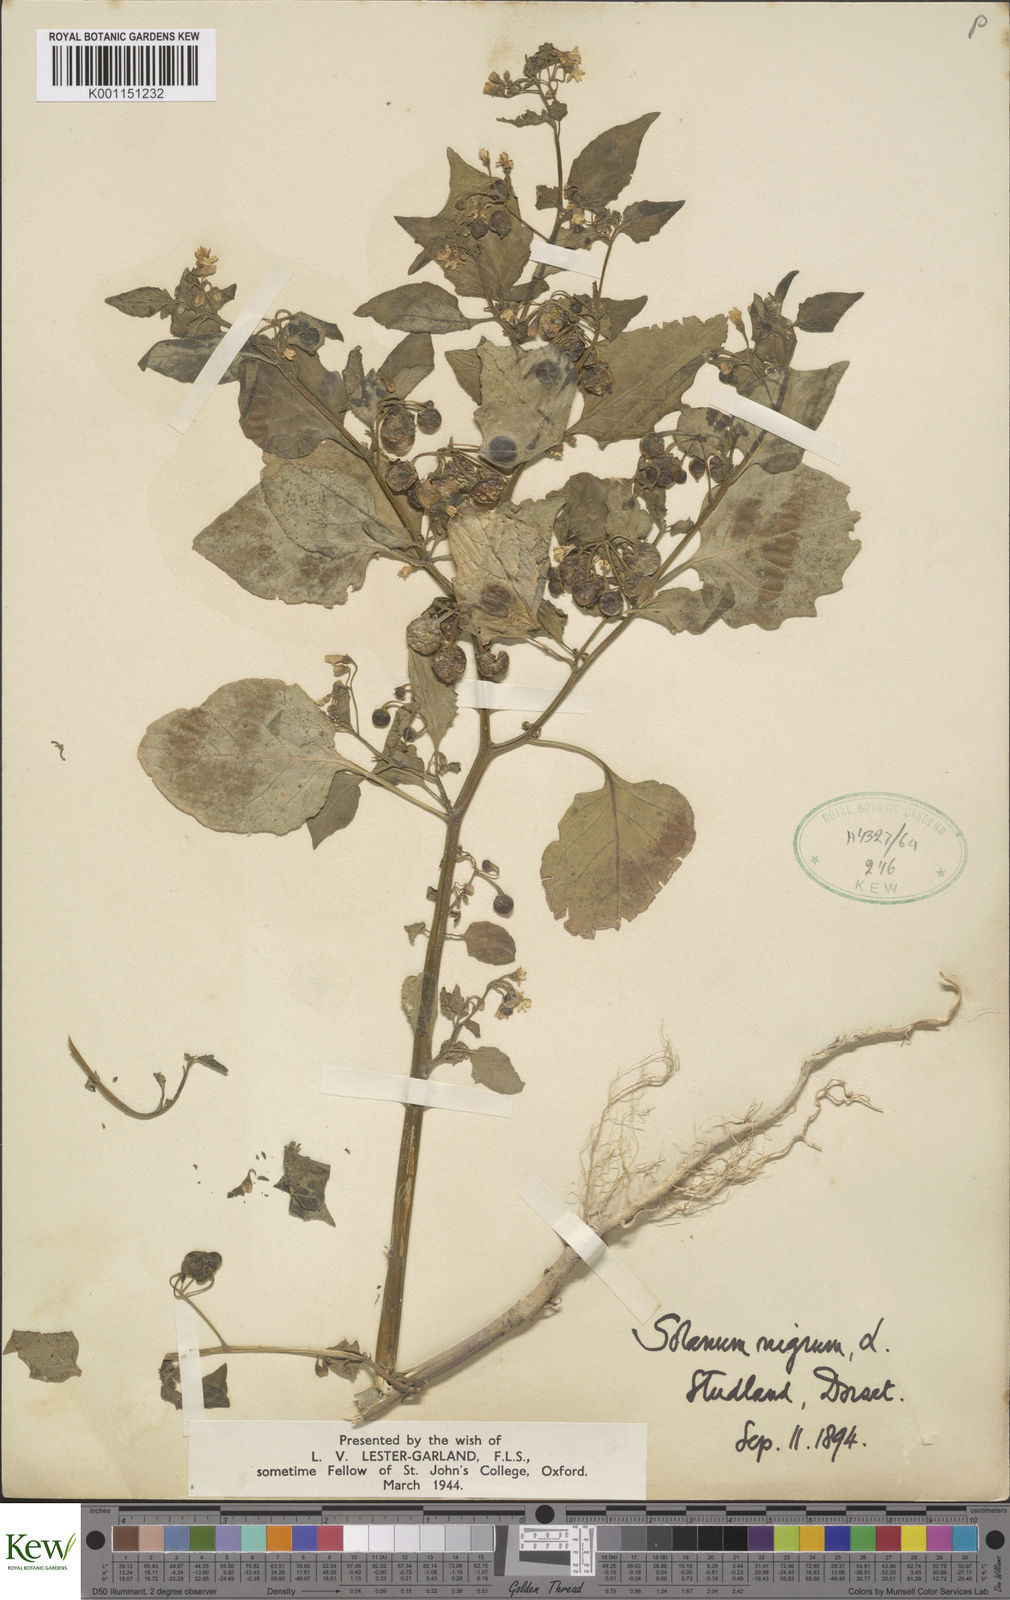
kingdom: Plantae
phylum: Tracheophyta
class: Magnoliopsida
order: Solanales
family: Solanaceae
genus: Solanum
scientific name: Solanum nigrum
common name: Black nightshade
